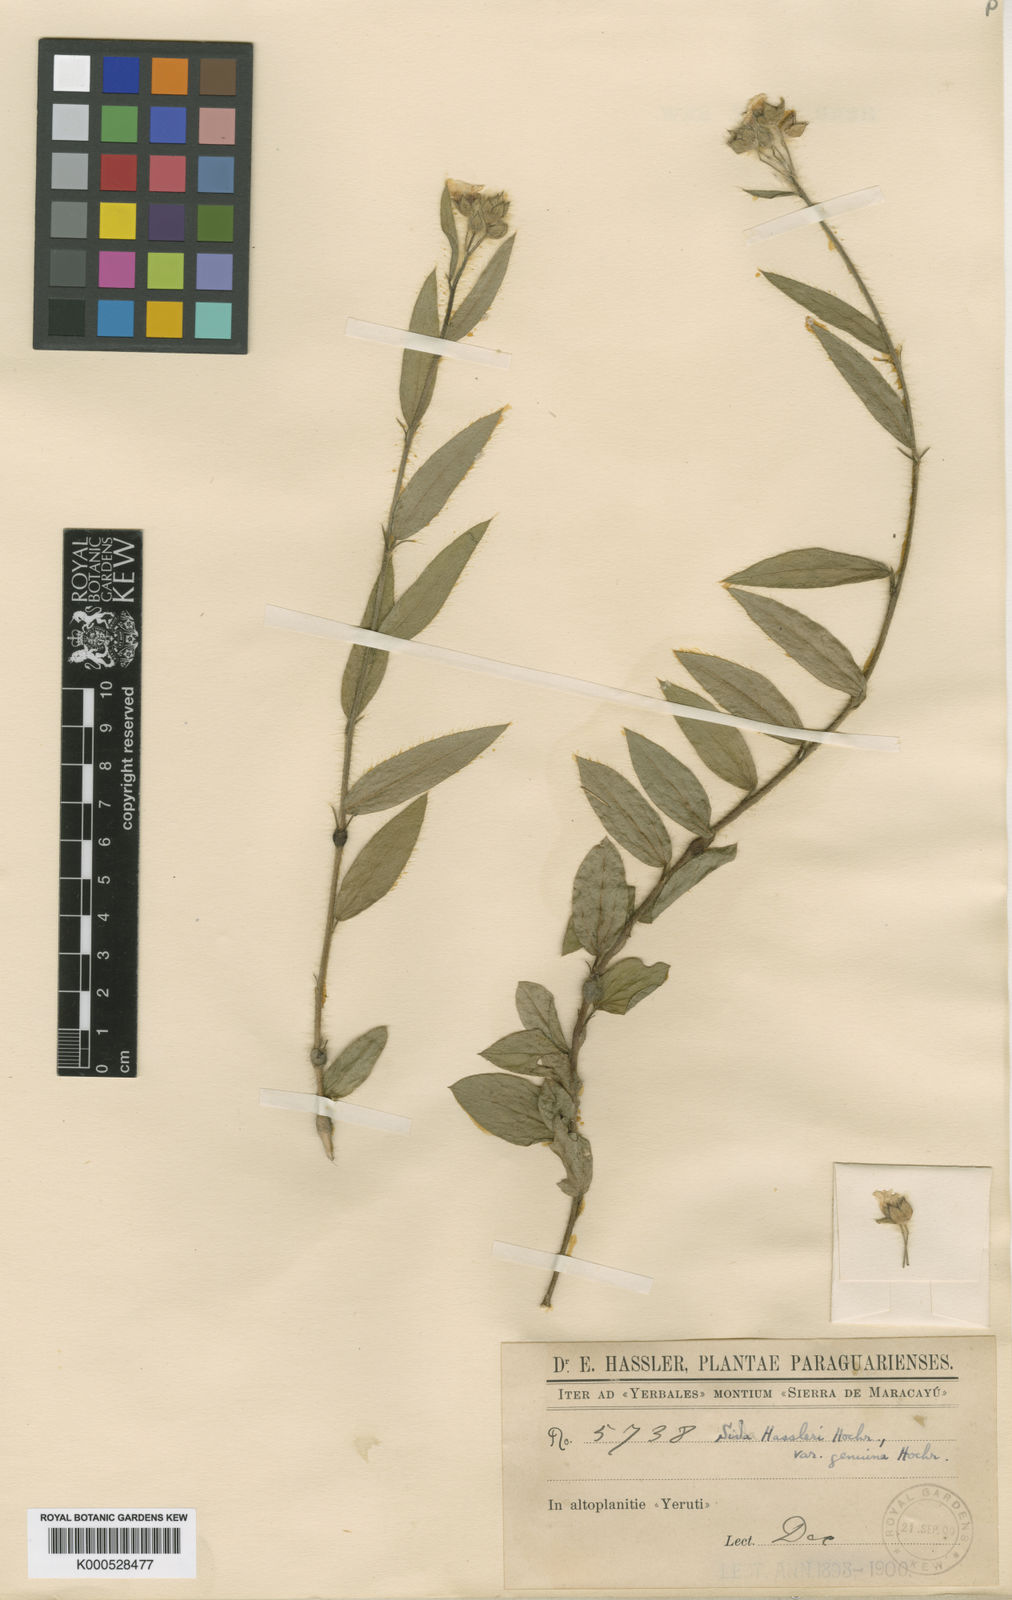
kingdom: Plantae
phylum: Tracheophyta
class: Magnoliopsida
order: Malvales
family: Malvaceae
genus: Sida
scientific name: Sida hassleri
